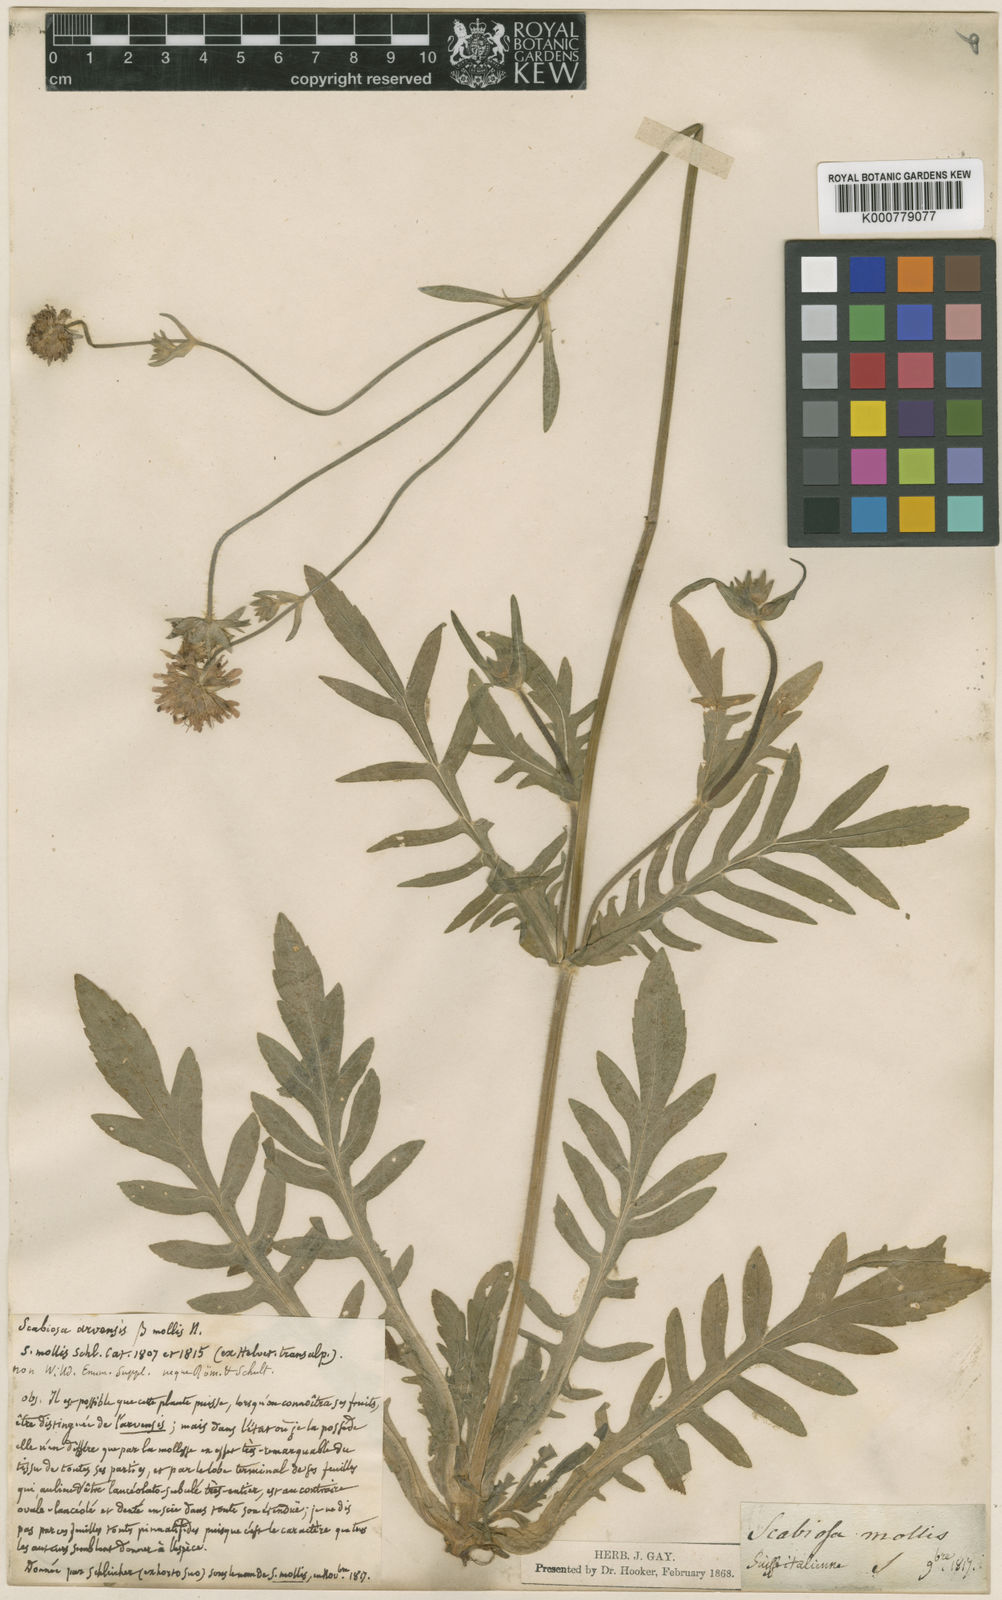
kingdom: Plantae
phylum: Tracheophyta
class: Magnoliopsida
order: Dipsacales
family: Caprifoliaceae
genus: Knautia
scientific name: Knautia ambigua
